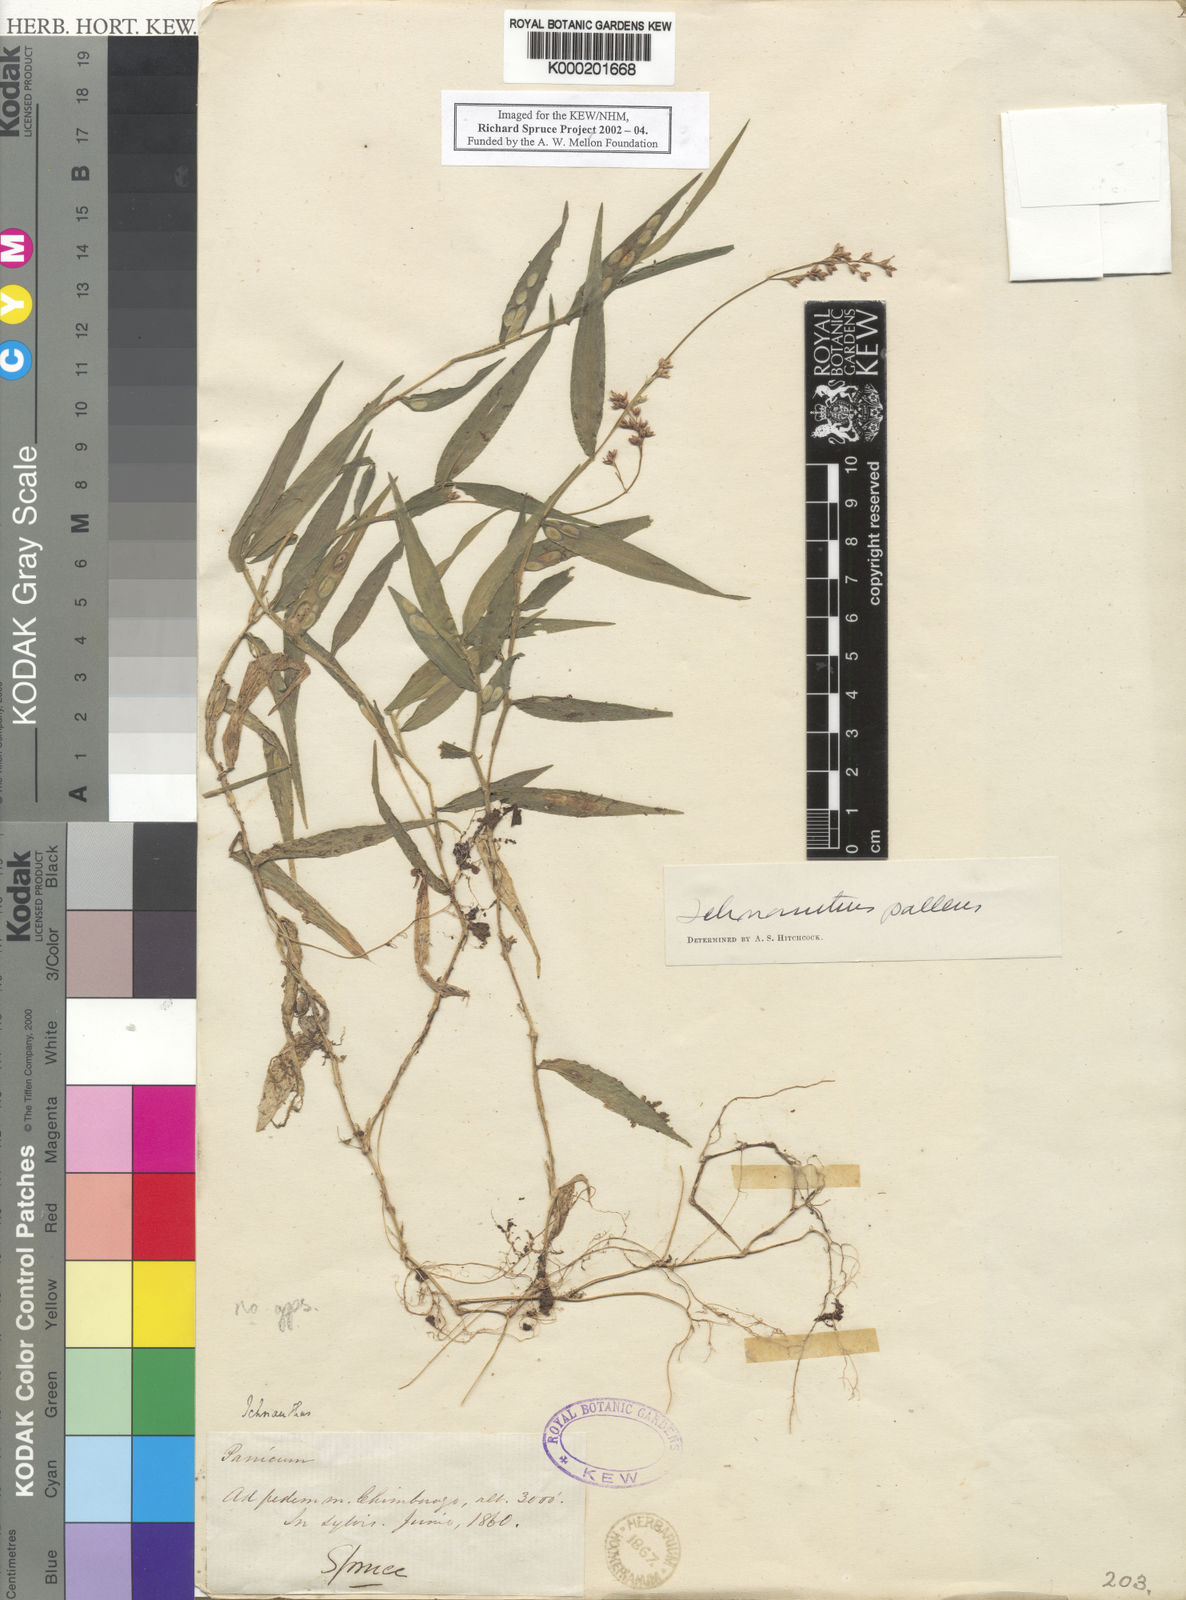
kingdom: Plantae
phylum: Tracheophyta
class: Liliopsida
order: Poales
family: Poaceae
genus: Ichnanthus
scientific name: Ichnanthus pallens
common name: Water grass
